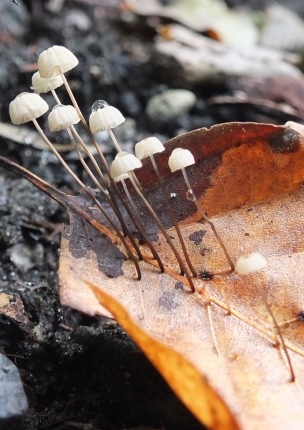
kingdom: Fungi
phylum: Basidiomycota
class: Agaricomycetes
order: Agaricales
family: Marasmiaceae
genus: Marasmius
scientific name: Marasmius bulliardii
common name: furet bruskhat
